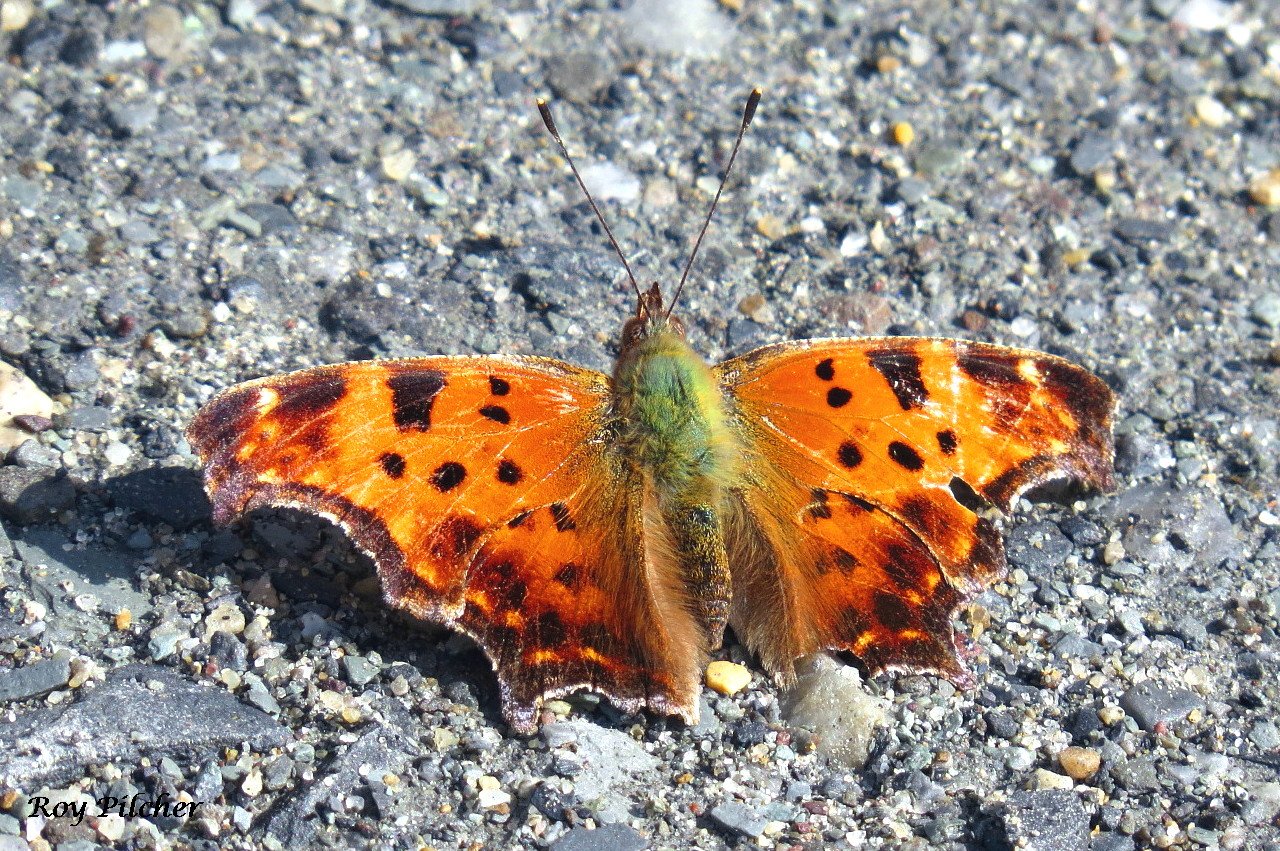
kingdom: Animalia
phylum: Arthropoda
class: Insecta
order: Lepidoptera
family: Nymphalidae
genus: Polygonia
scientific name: Polygonia comma
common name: Eastern Comma
